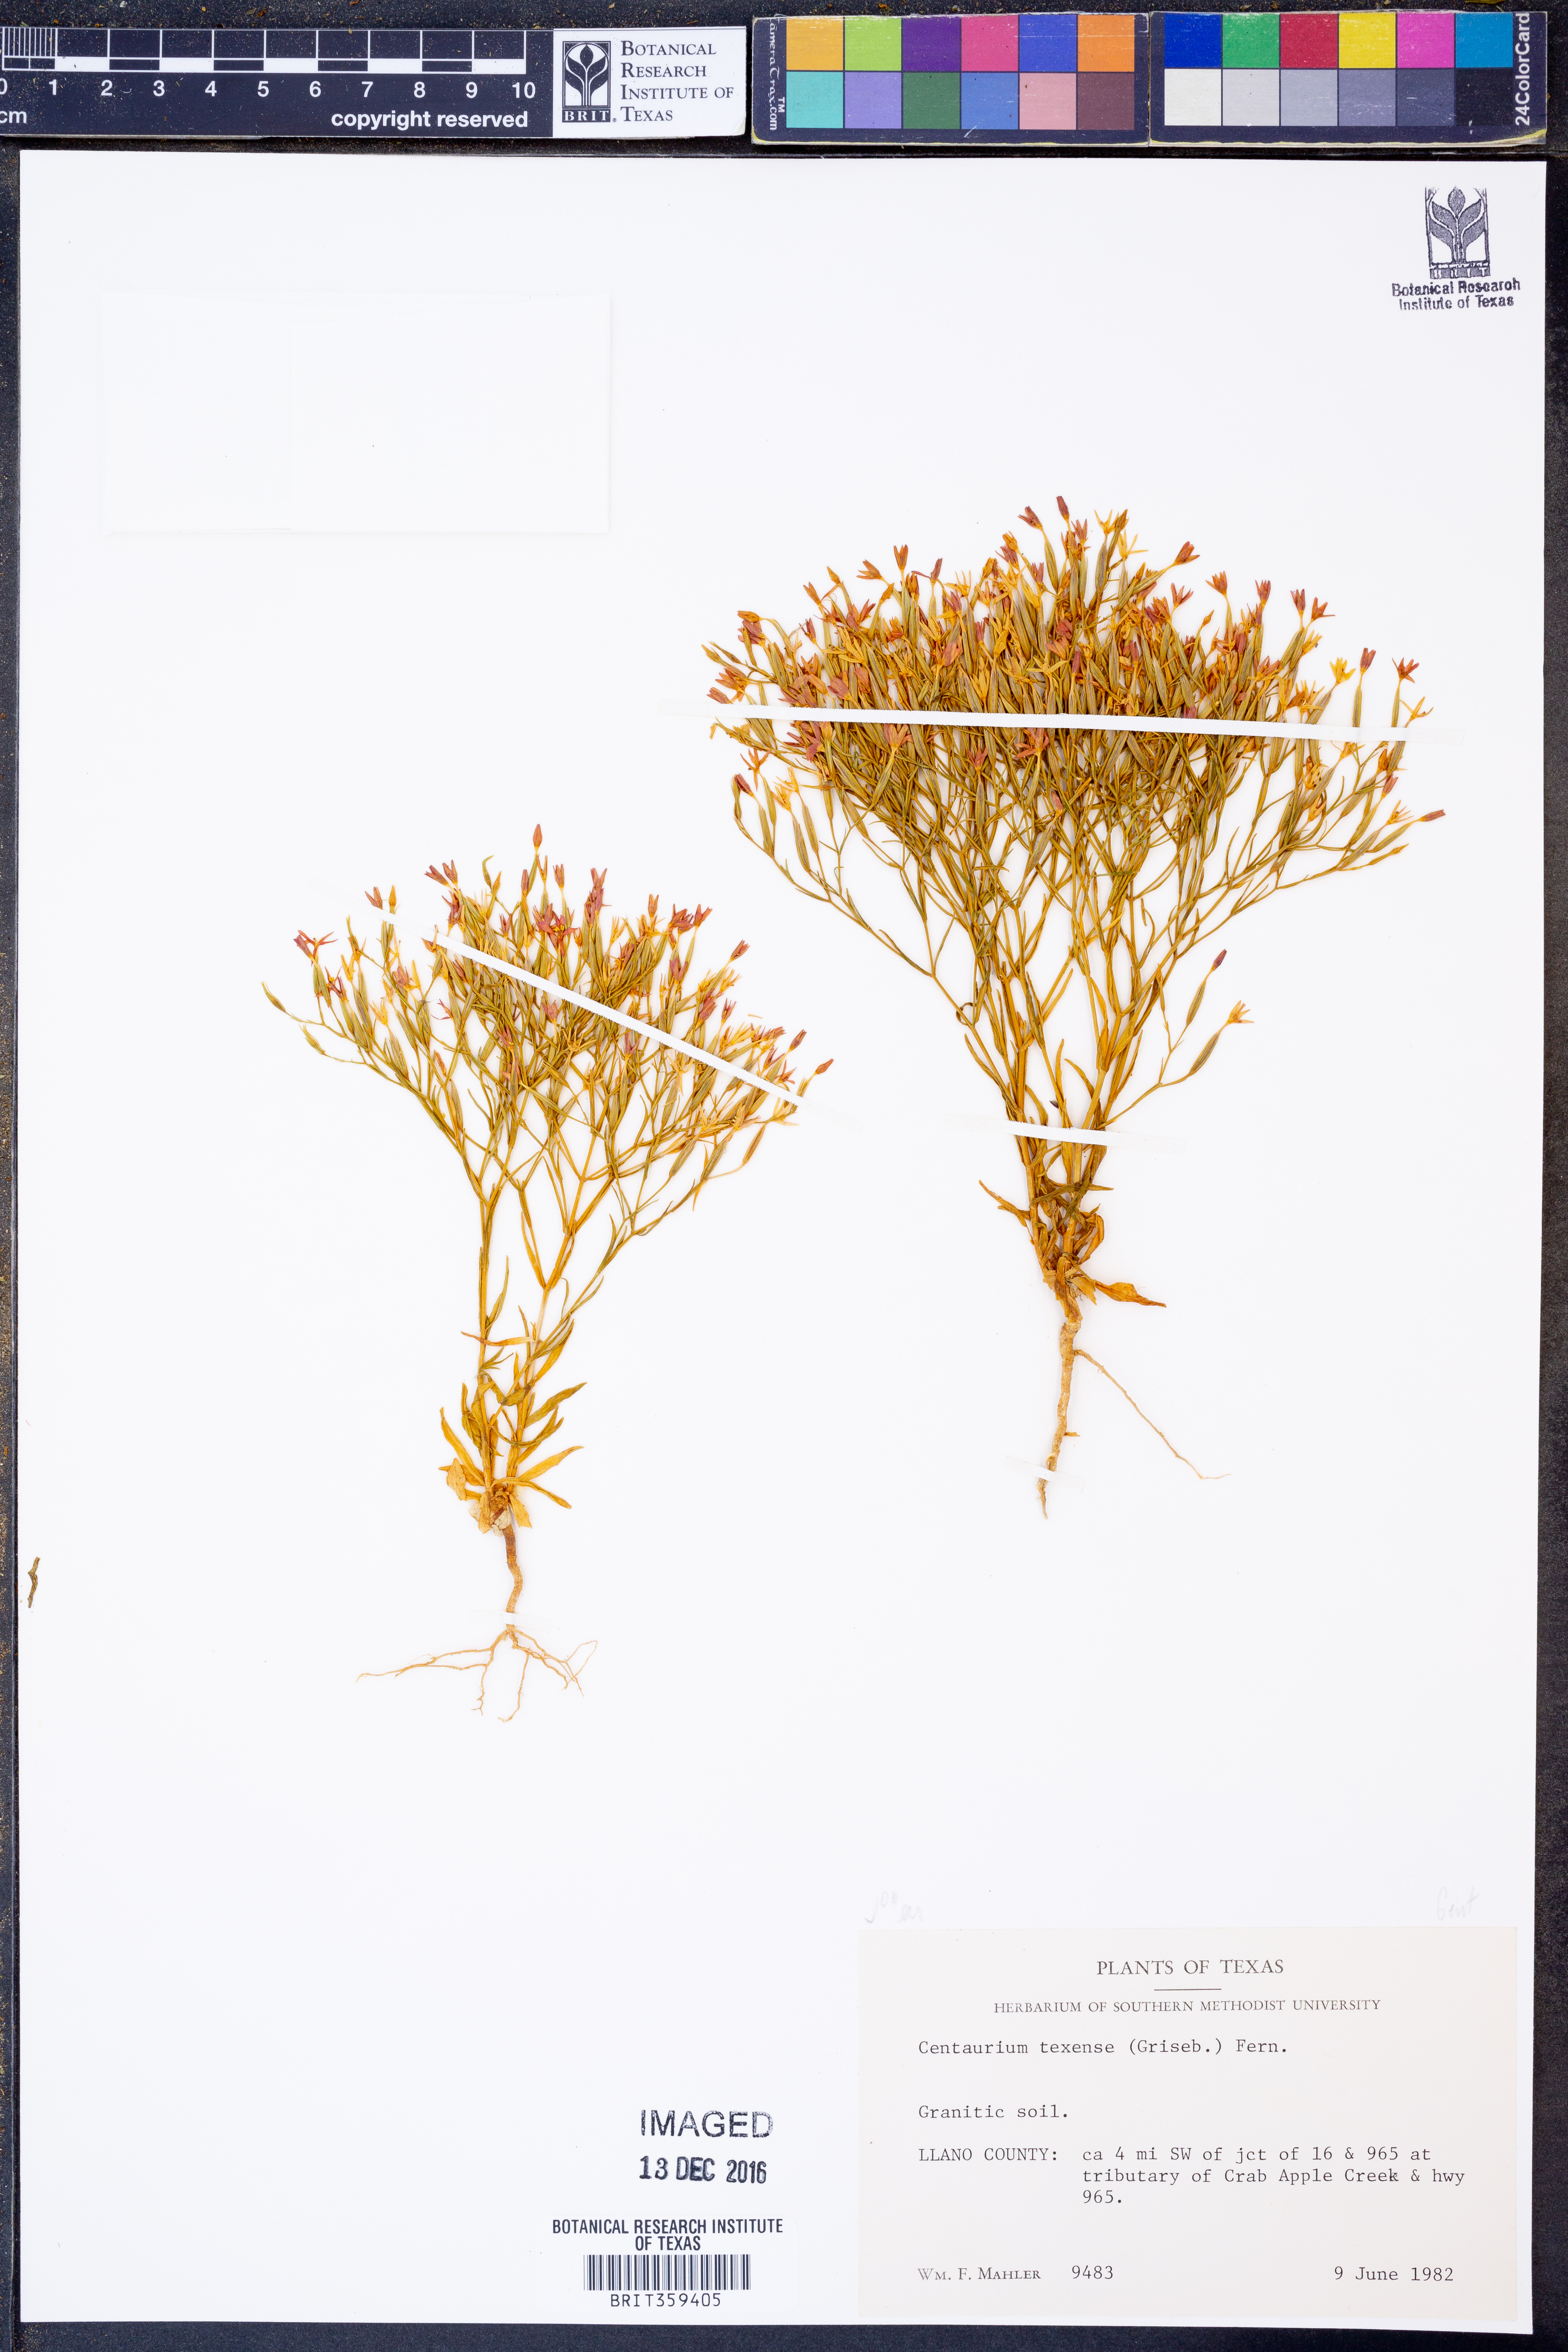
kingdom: Plantae
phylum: Tracheophyta
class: Magnoliopsida
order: Gentianales
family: Gentianaceae
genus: Zeltnera
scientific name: Zeltnera texensis
